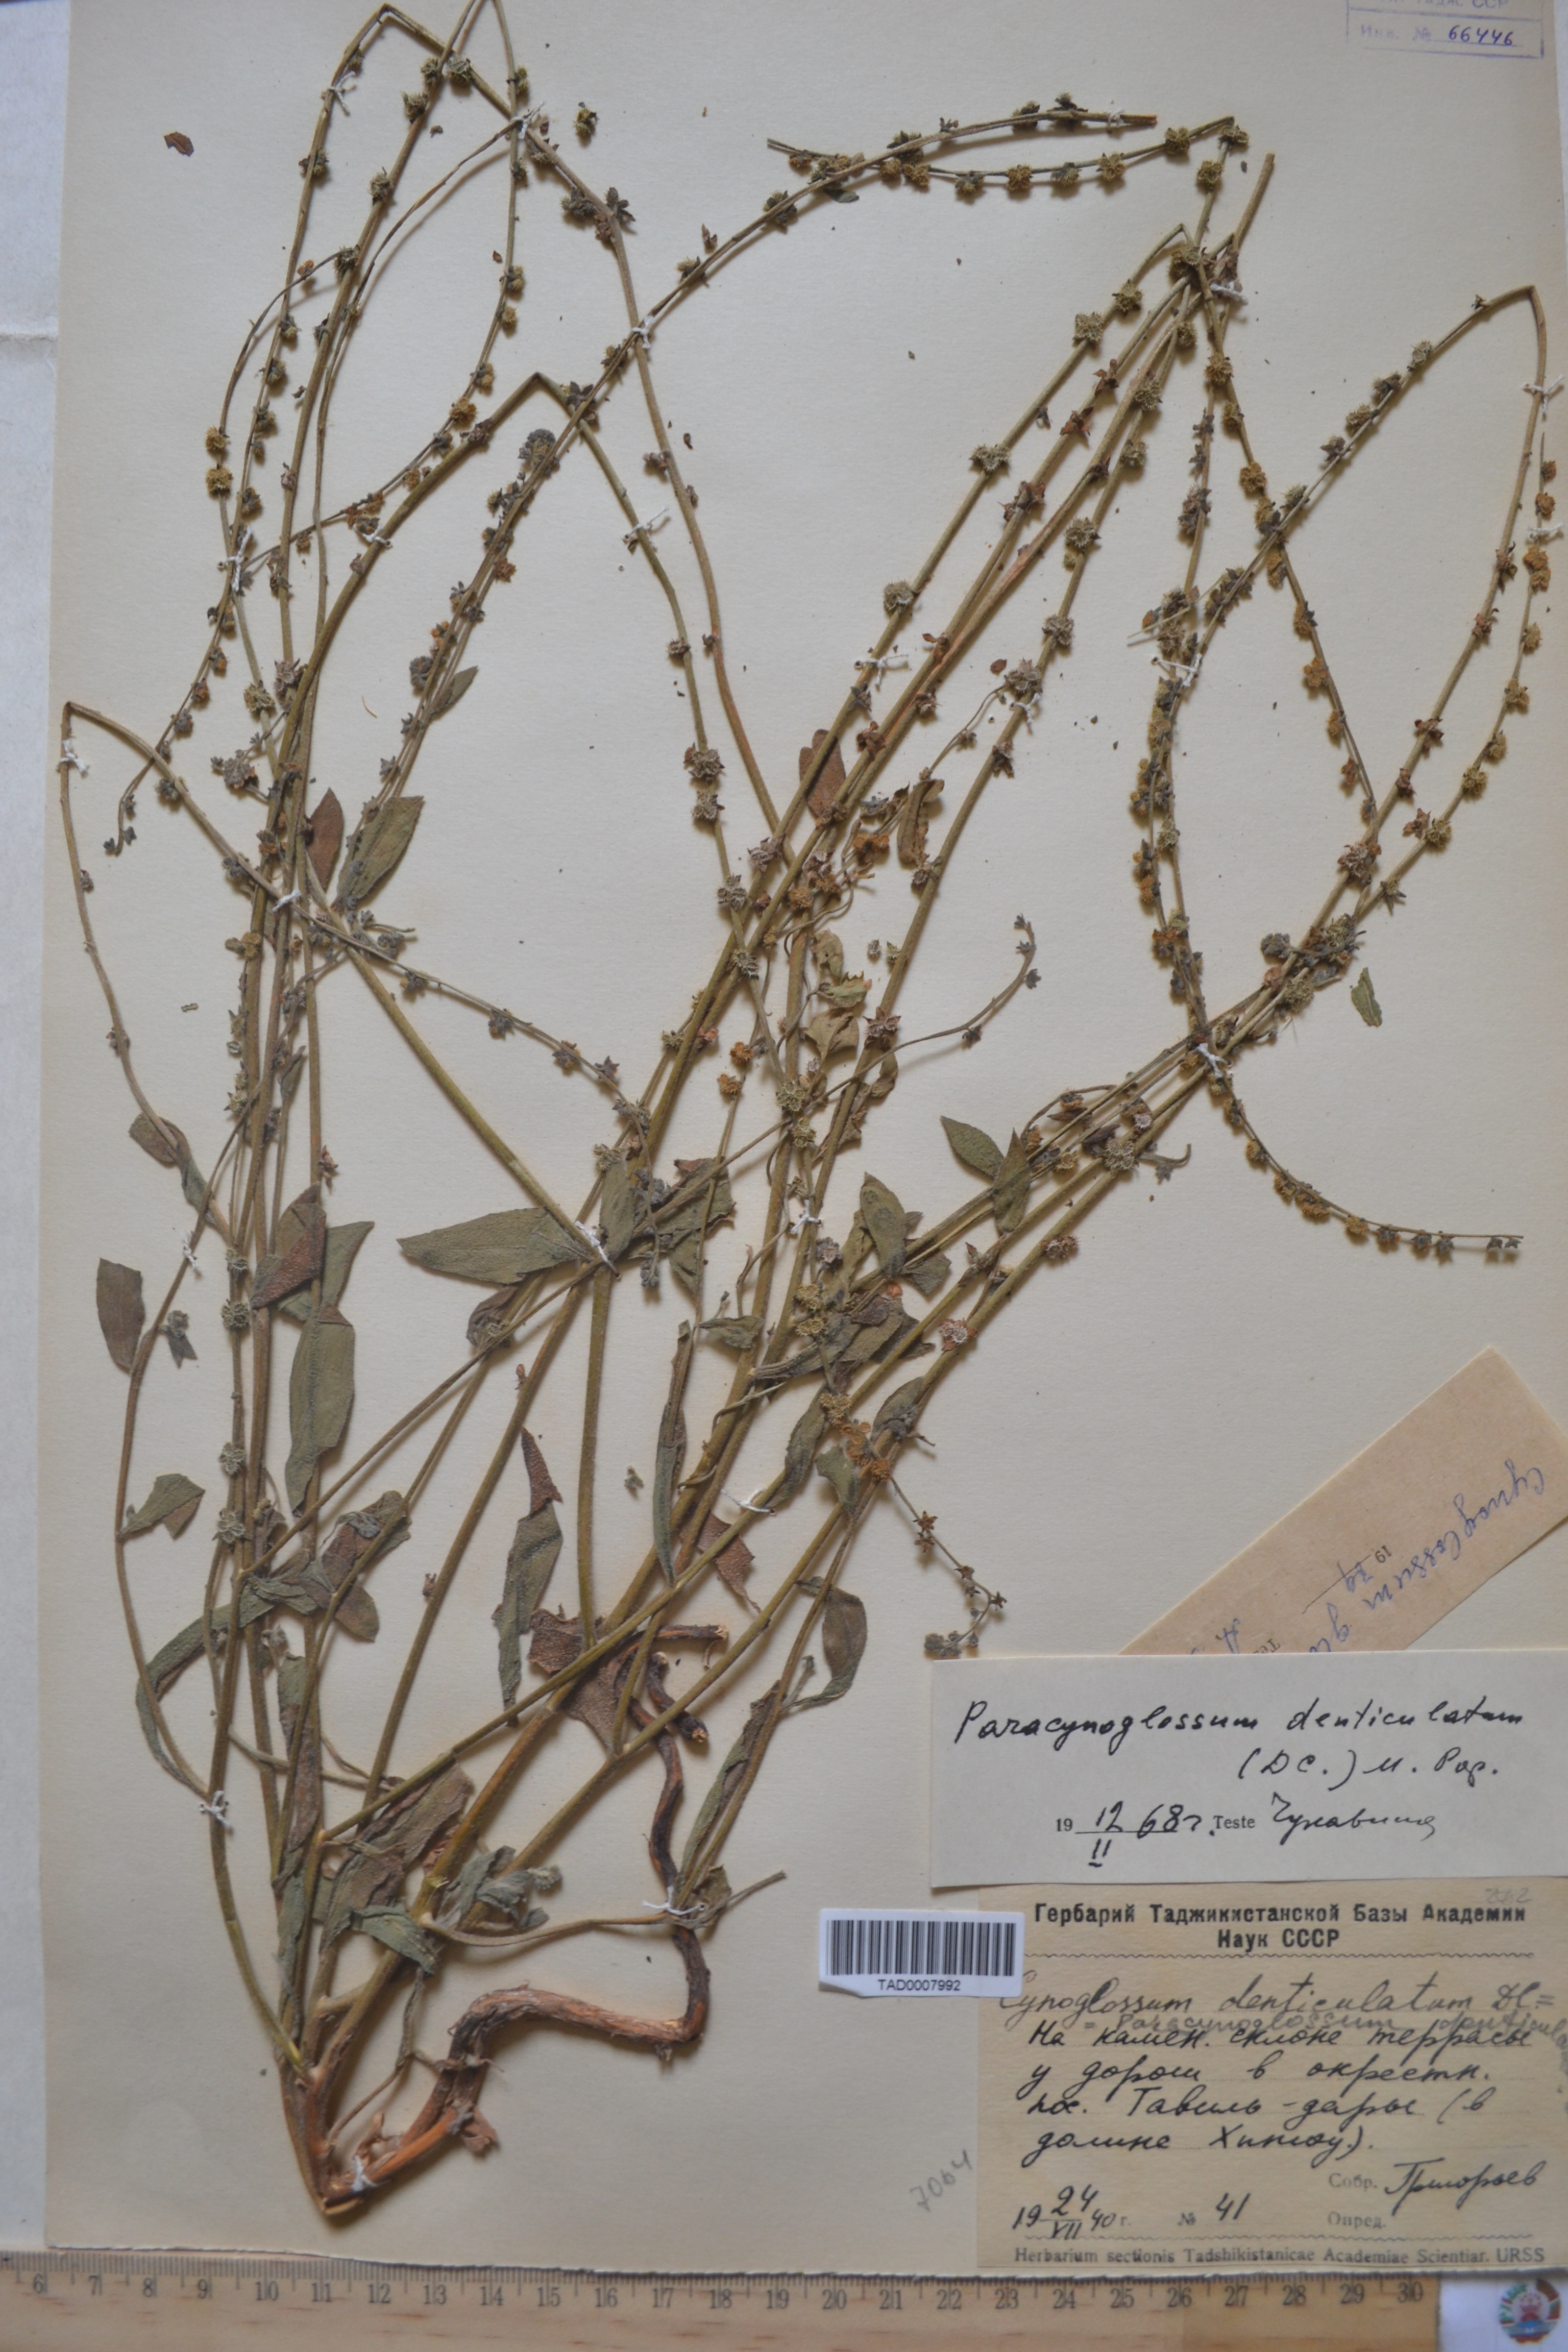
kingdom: Plantae
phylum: Tracheophyta
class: Magnoliopsida
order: Boraginales
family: Boraginaceae
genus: Paracynoglossum
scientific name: Paracynoglossum glochidiatum
